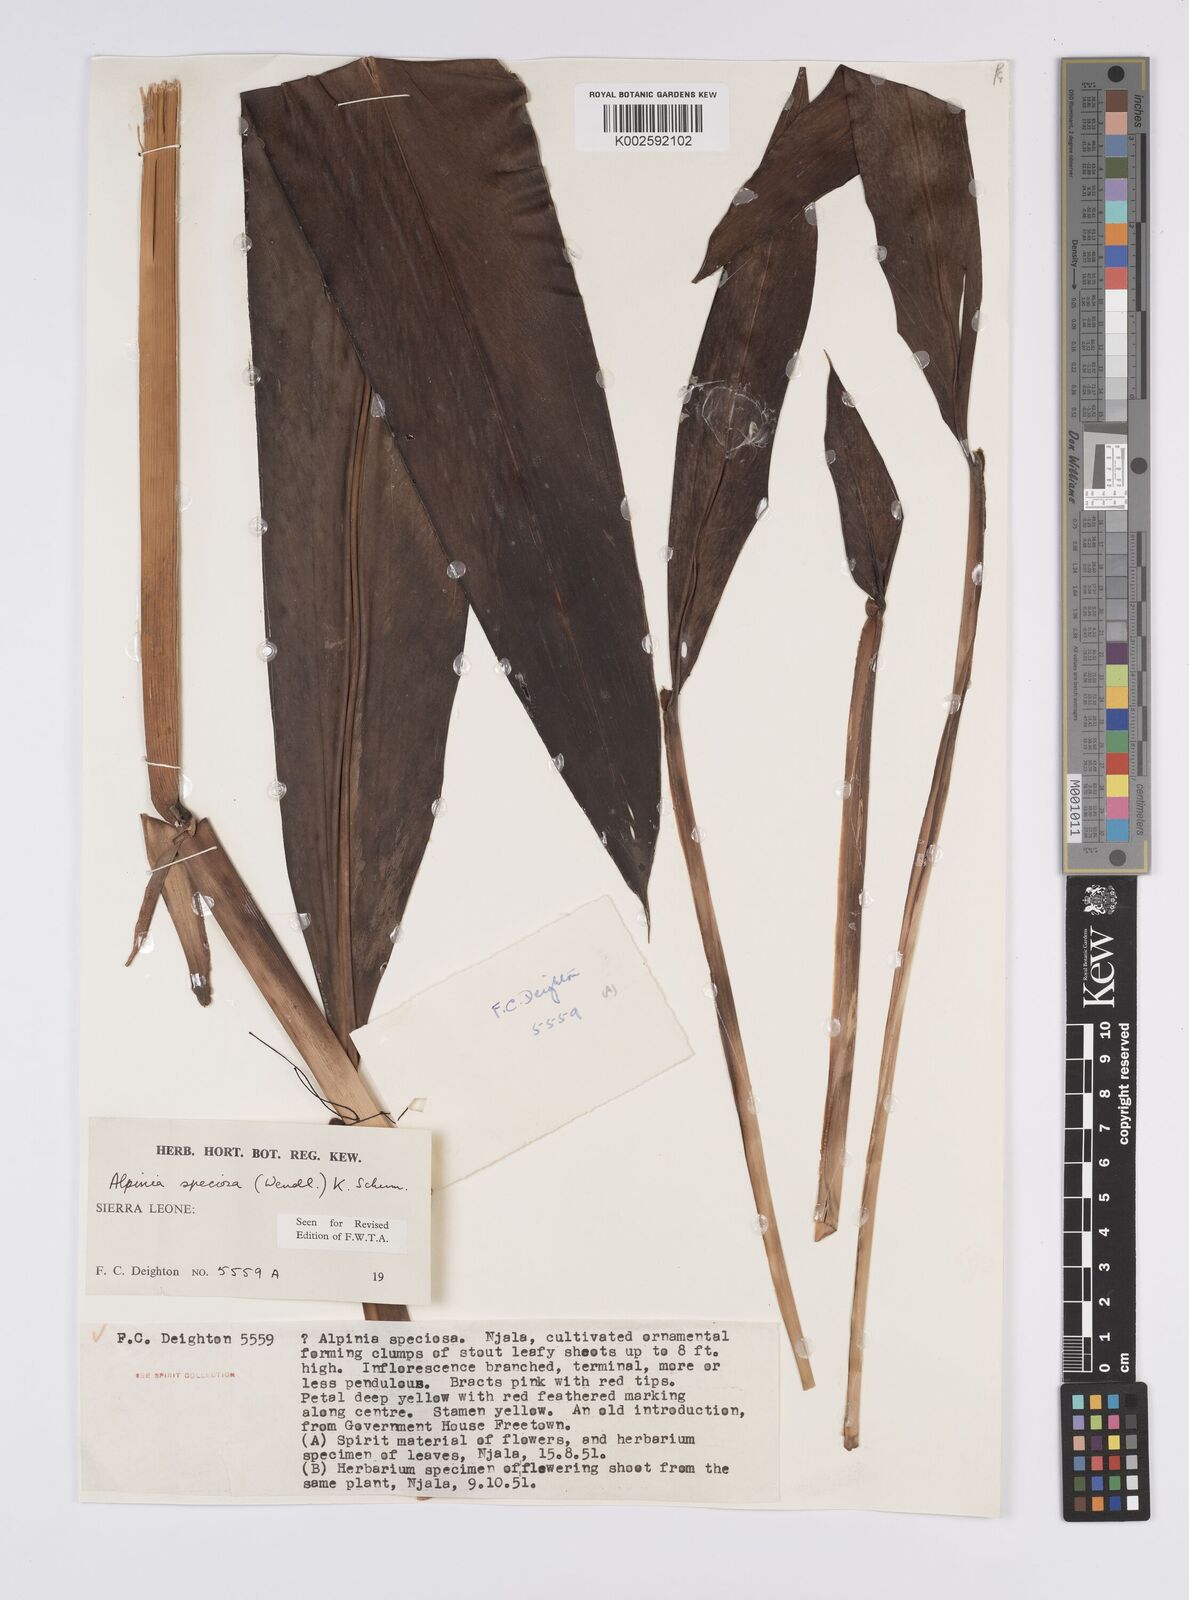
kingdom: Plantae
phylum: Tracheophyta
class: Liliopsida
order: Zingiberales
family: Zingiberaceae
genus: Alpinia
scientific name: Alpinia
